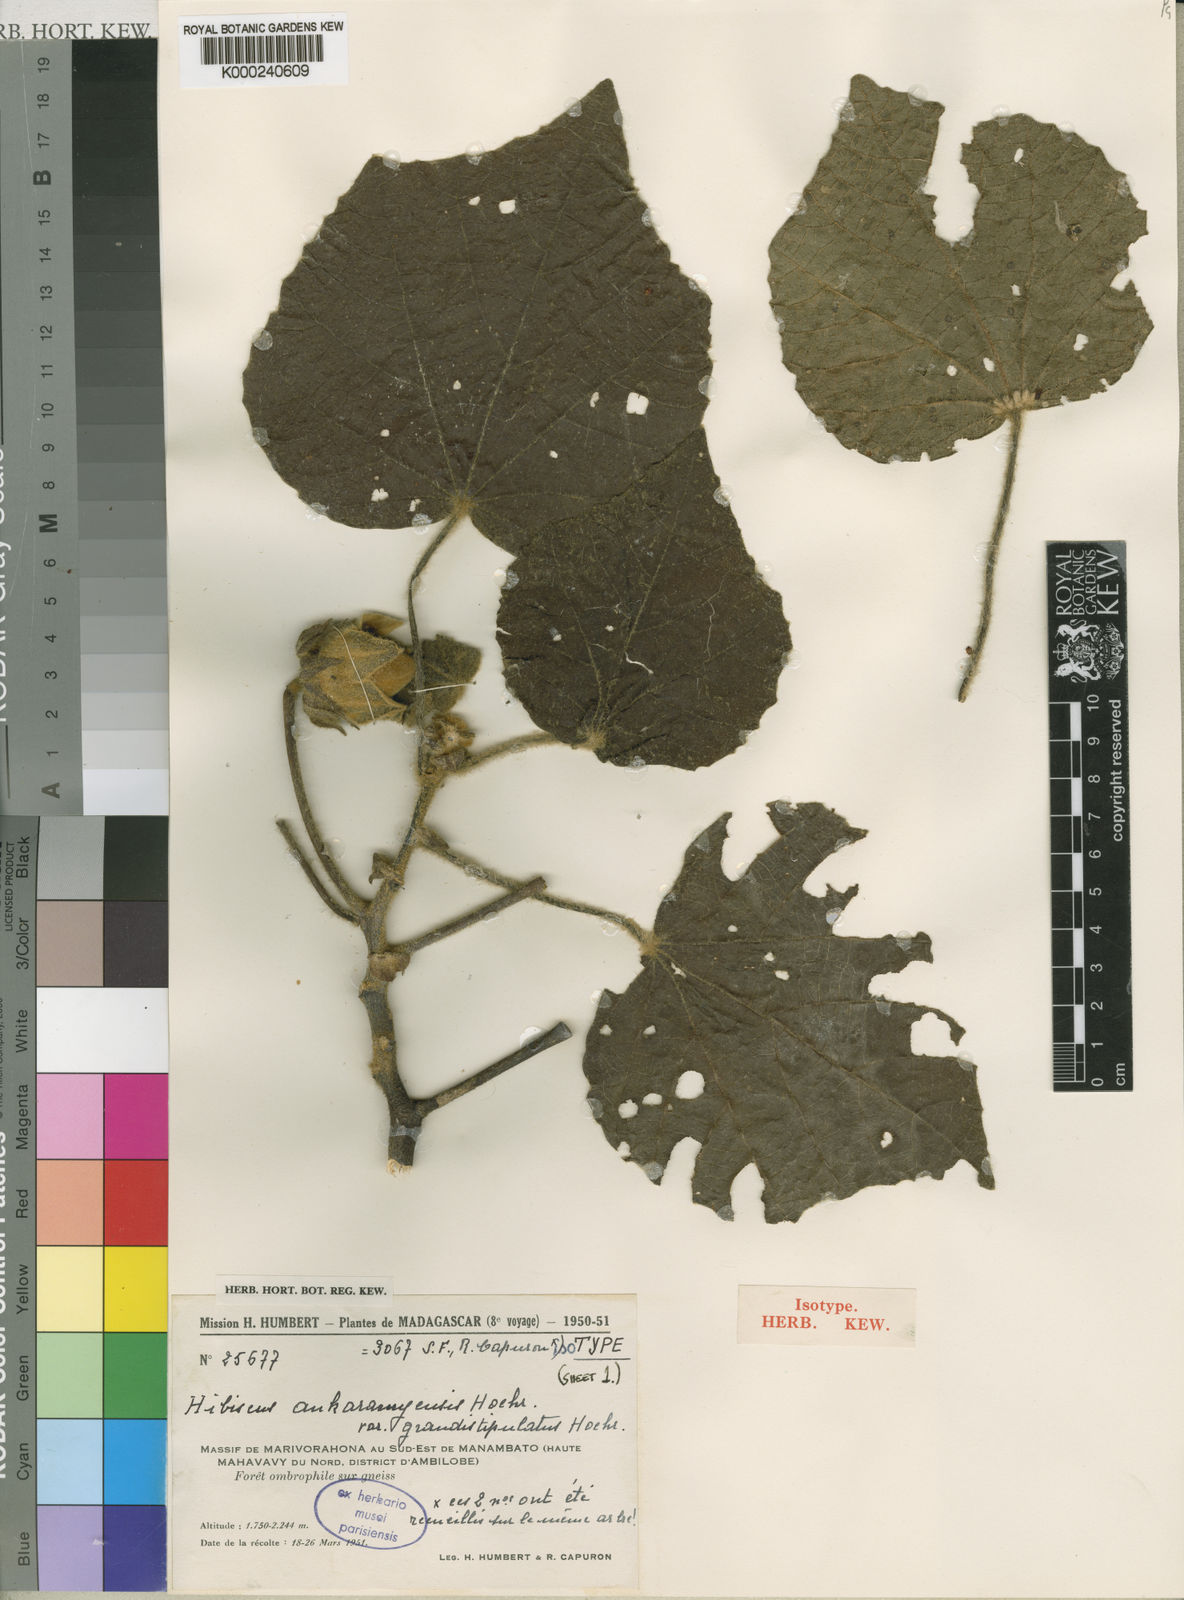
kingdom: Plantae
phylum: Tracheophyta
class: Magnoliopsida
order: Malvales
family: Malvaceae
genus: Hibiscus
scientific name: Hibiscus ankaramyensis
